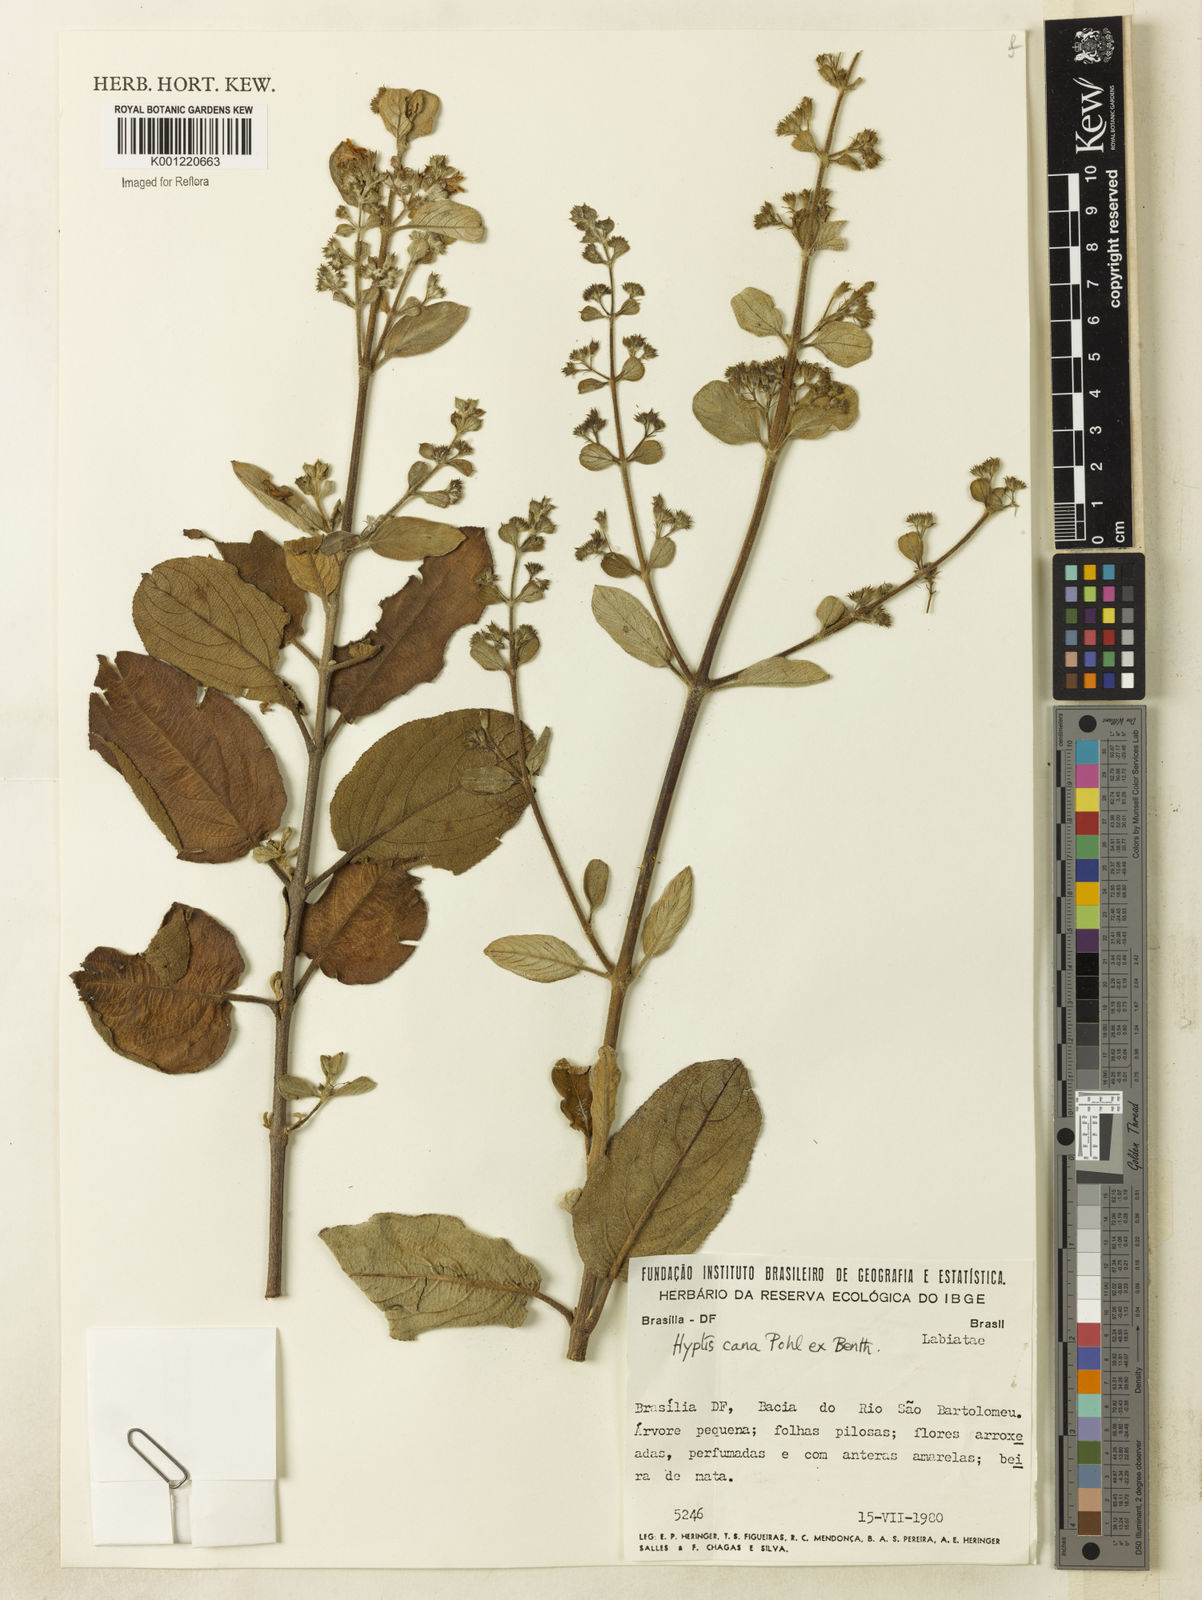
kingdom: Plantae
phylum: Tracheophyta
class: Magnoliopsida
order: Lamiales
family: Lamiaceae
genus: Hyptidendron
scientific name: Hyptidendron canum
